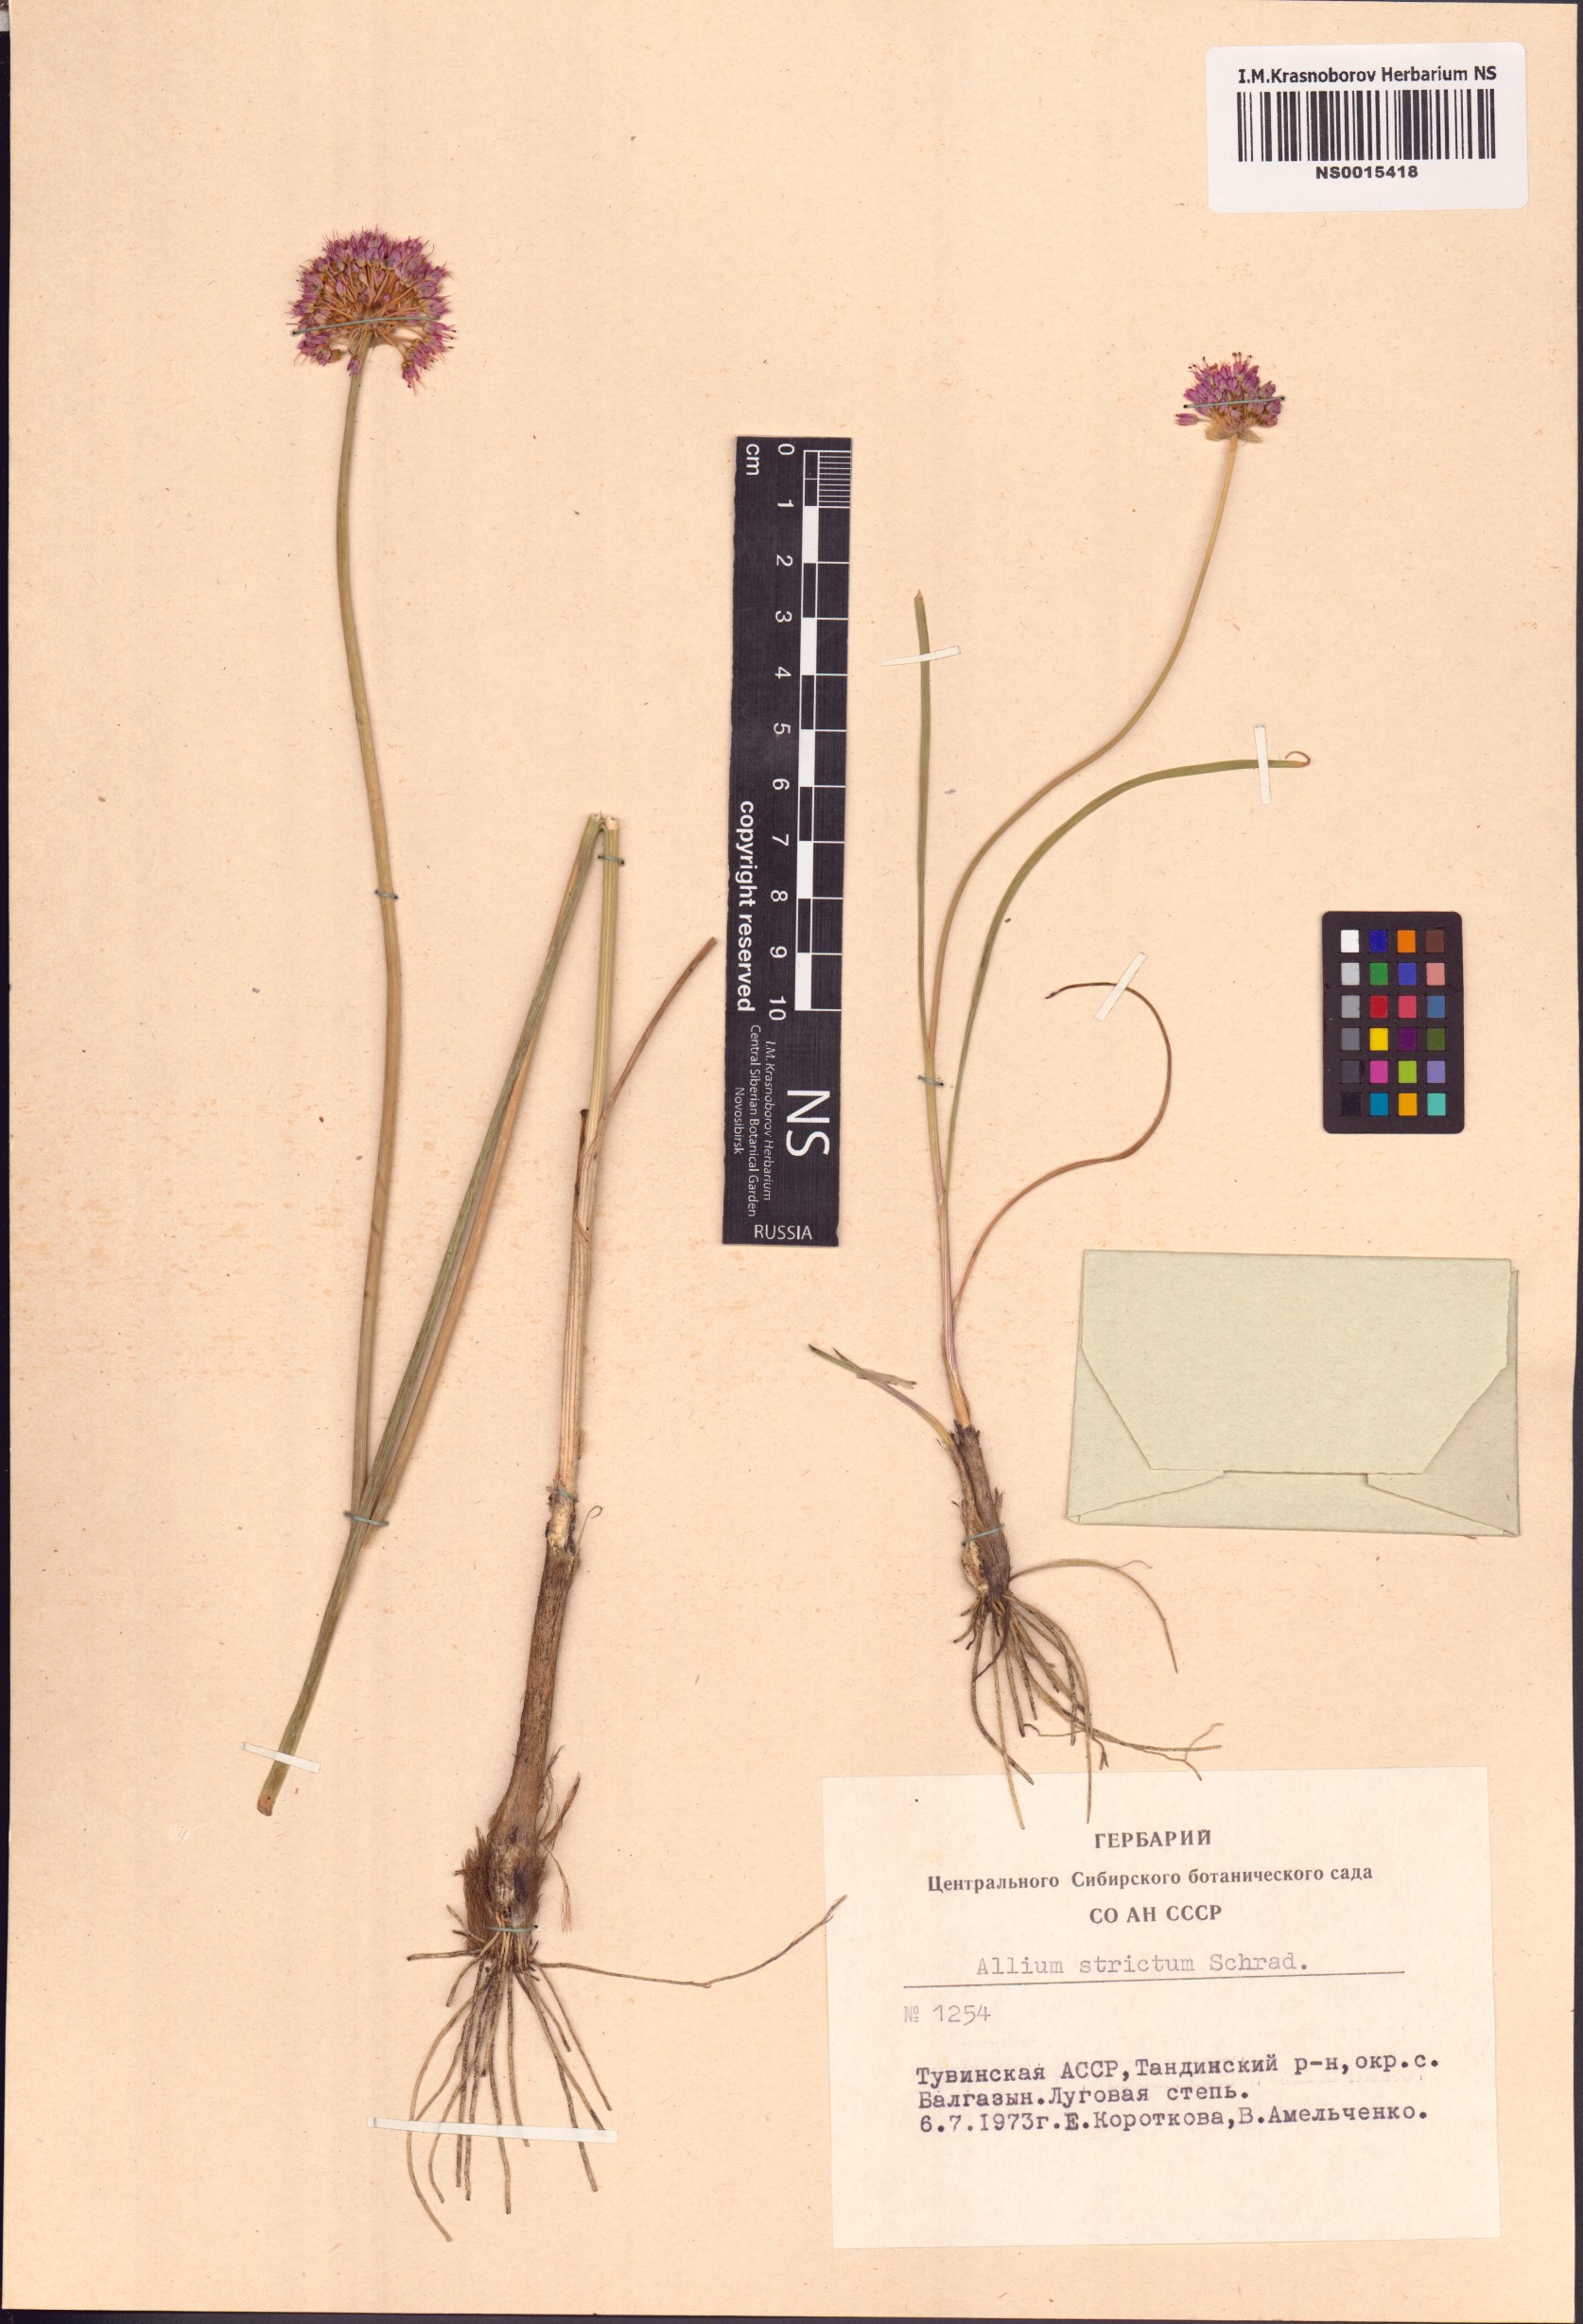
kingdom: Plantae
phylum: Tracheophyta
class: Liliopsida
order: Asparagales
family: Amaryllidaceae
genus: Allium
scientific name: Allium strictum
